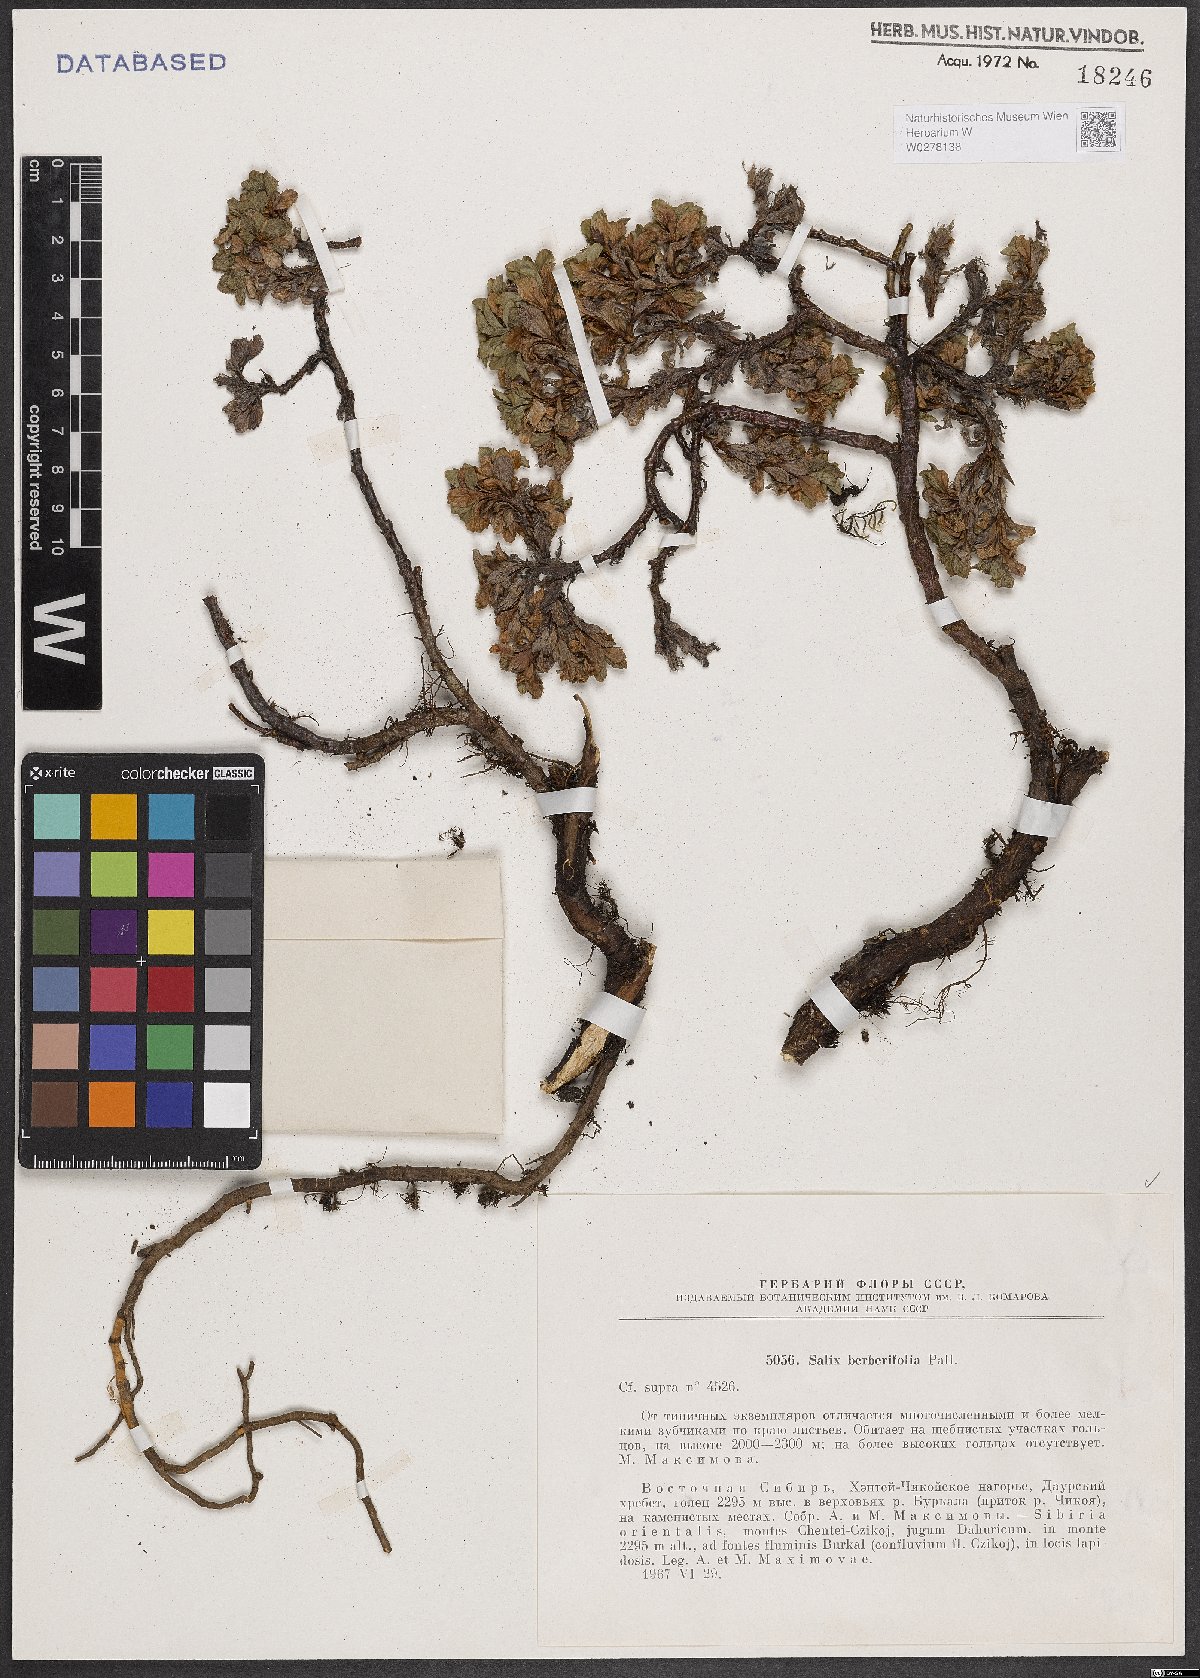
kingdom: Plantae
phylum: Tracheophyta
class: Magnoliopsida
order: Malpighiales
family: Salicaceae
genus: Salix
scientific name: Salix berberifolia
